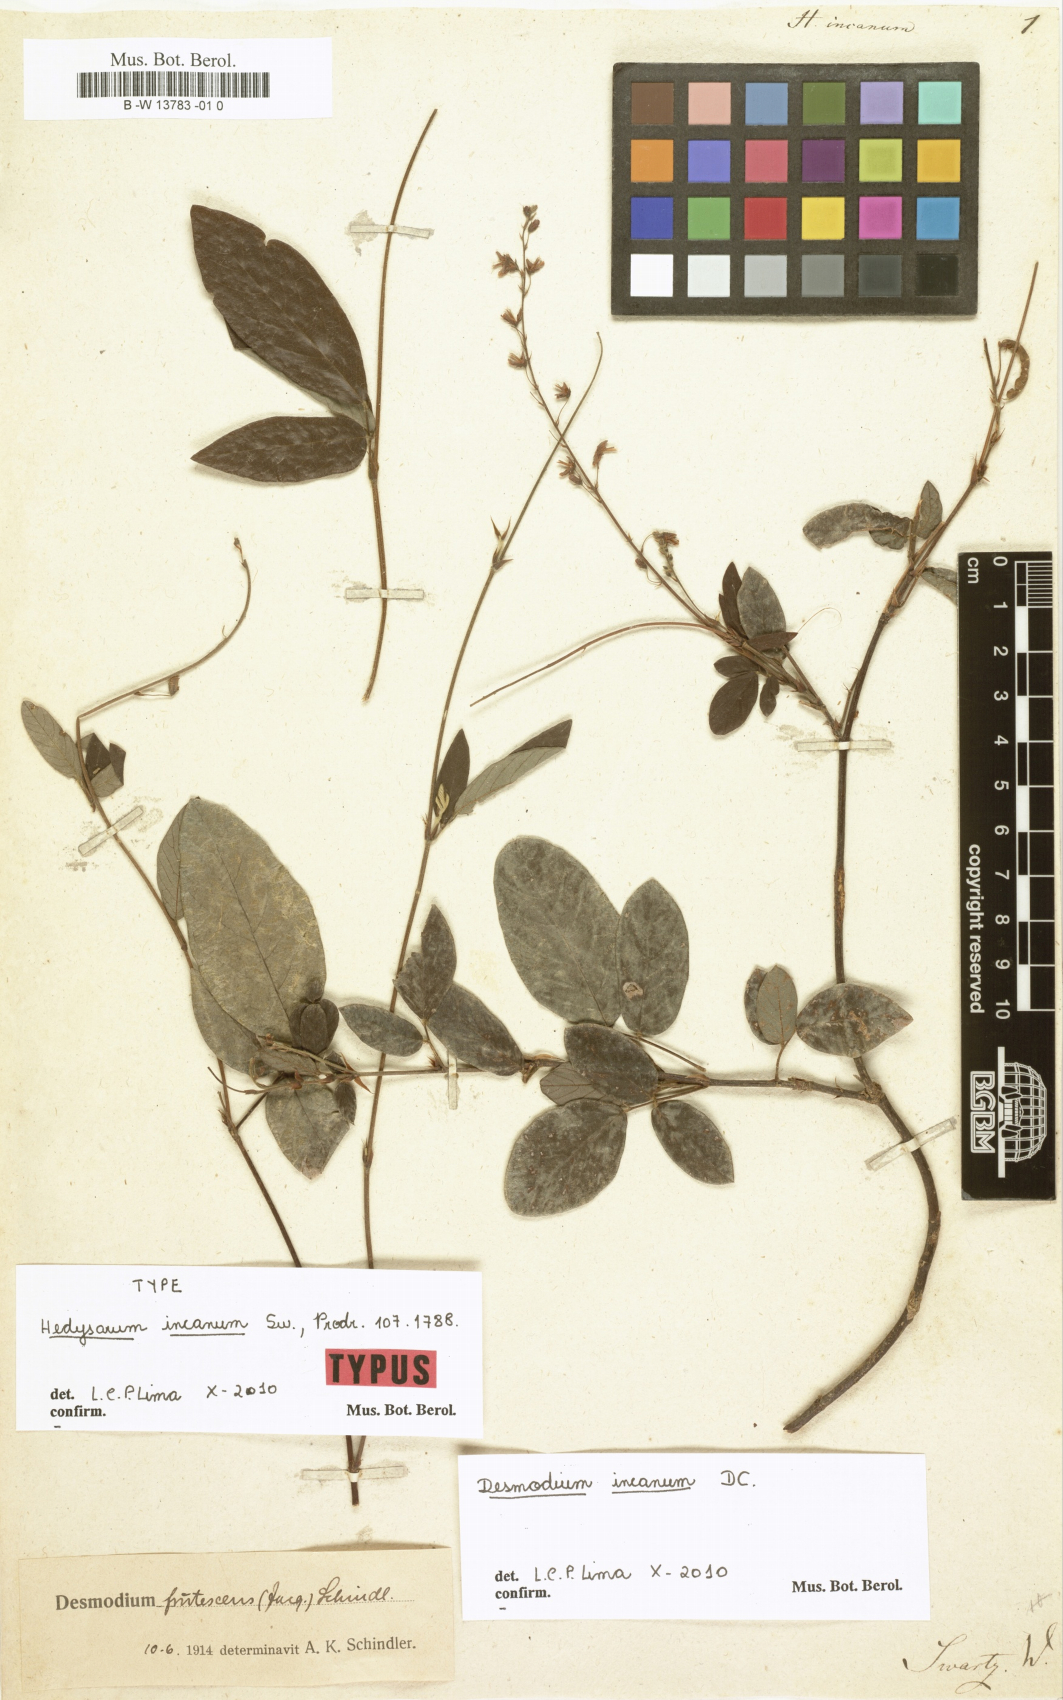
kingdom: Plantae
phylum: Tracheophyta
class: Magnoliopsida
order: Fabales
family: Fabaceae
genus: Desmodium
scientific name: Desmodium incanum
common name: Tickclover
